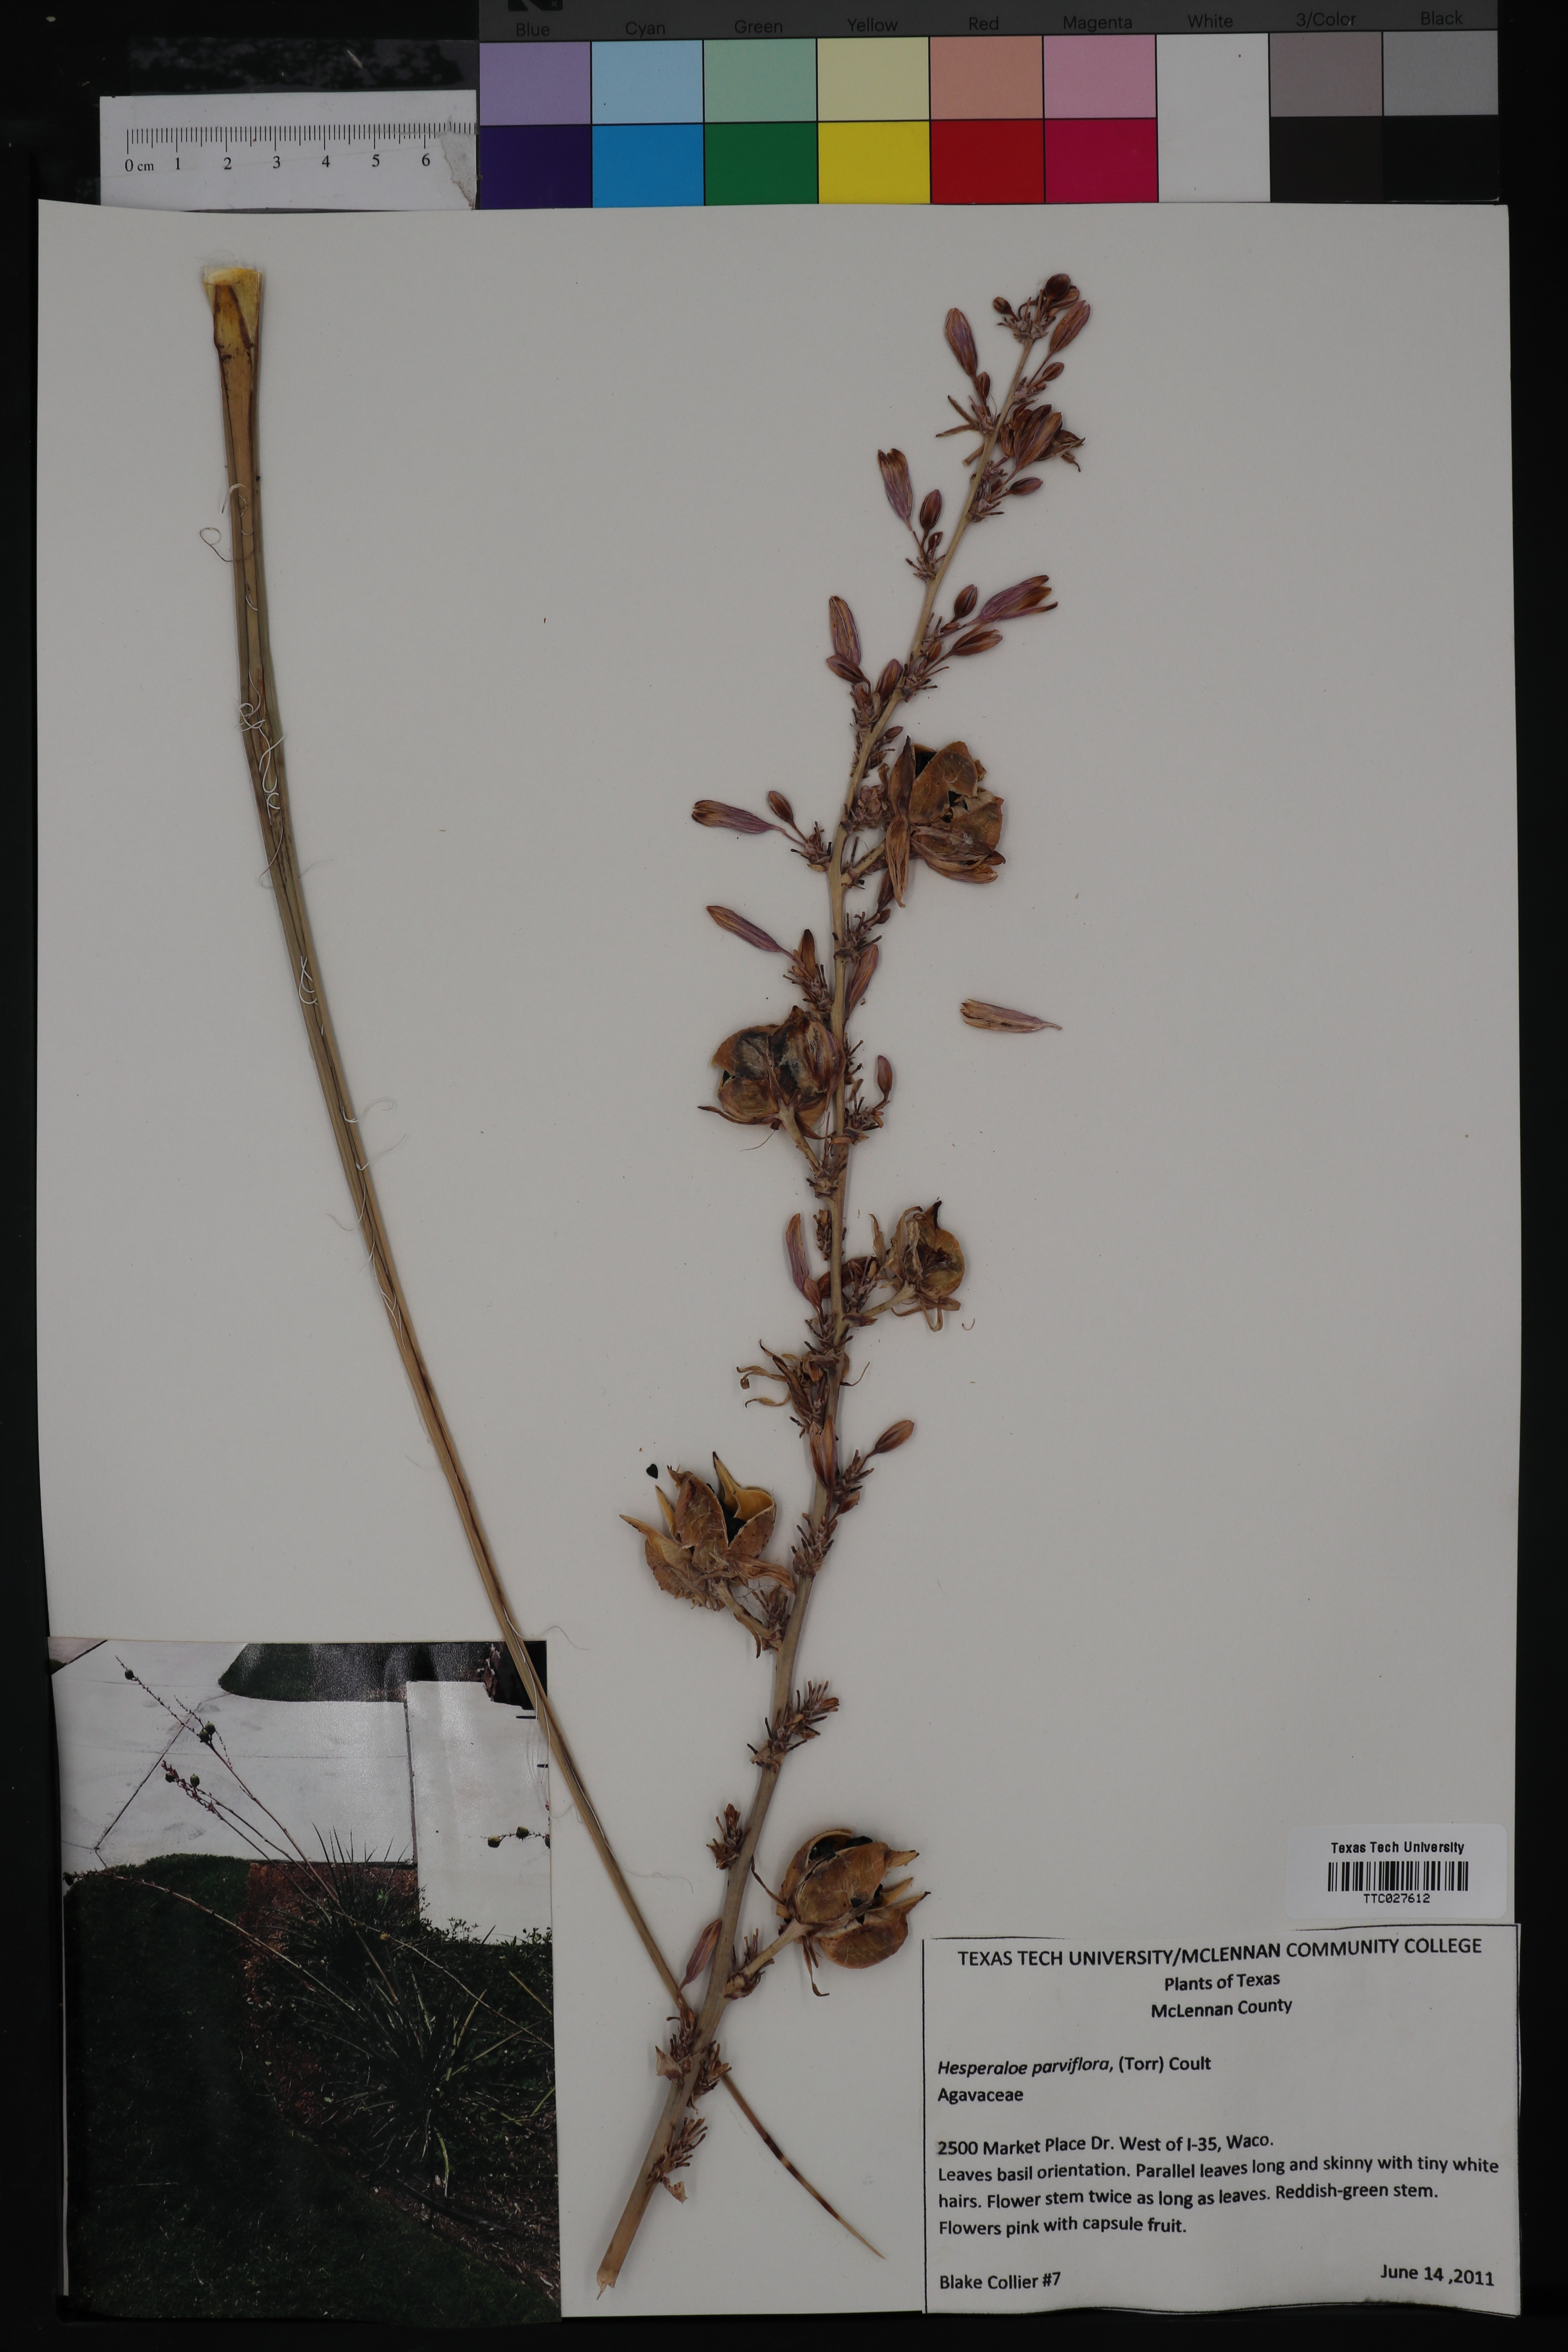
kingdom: Plantae
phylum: Tracheophyta
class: Liliopsida
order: Asparagales
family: Asparagaceae
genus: Hesperaloe
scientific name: Hesperaloe parviflora
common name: Red hesperaloe
